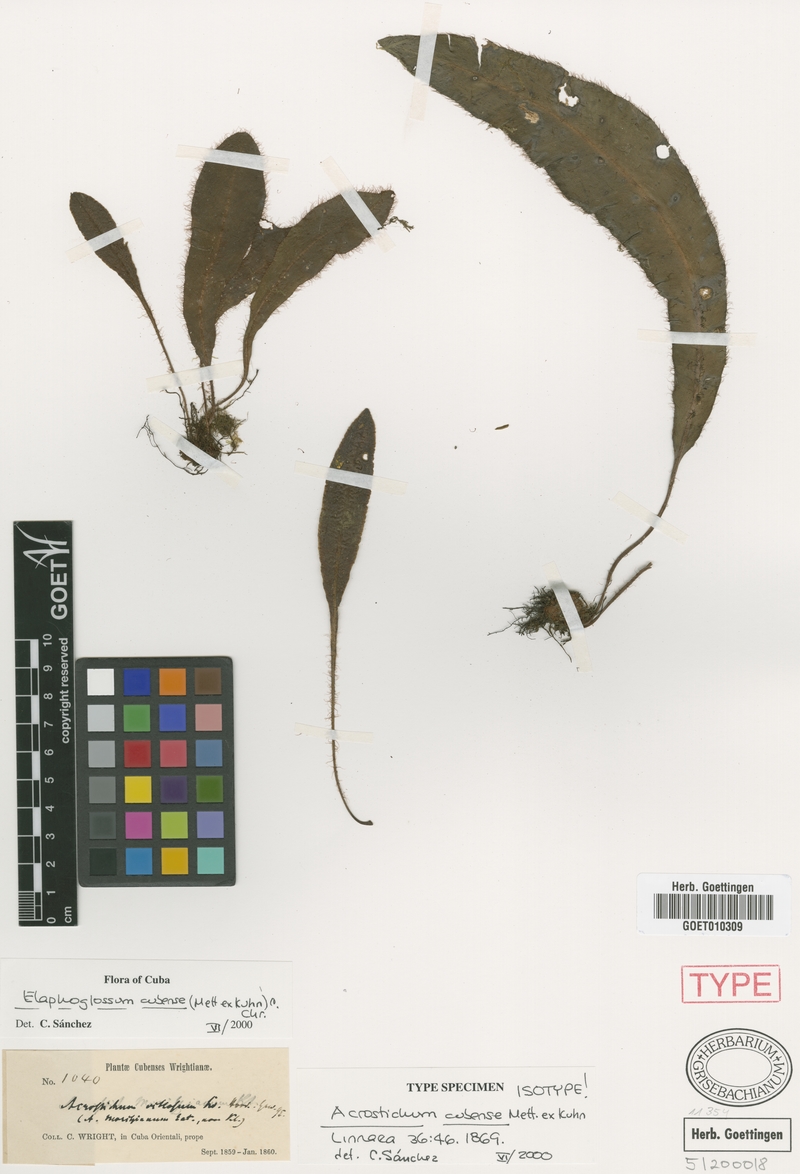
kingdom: Plantae
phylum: Tracheophyta
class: Polypodiopsida
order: Polypodiales
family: Dryopteridaceae
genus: Elaphoglossum
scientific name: Elaphoglossum cubense
